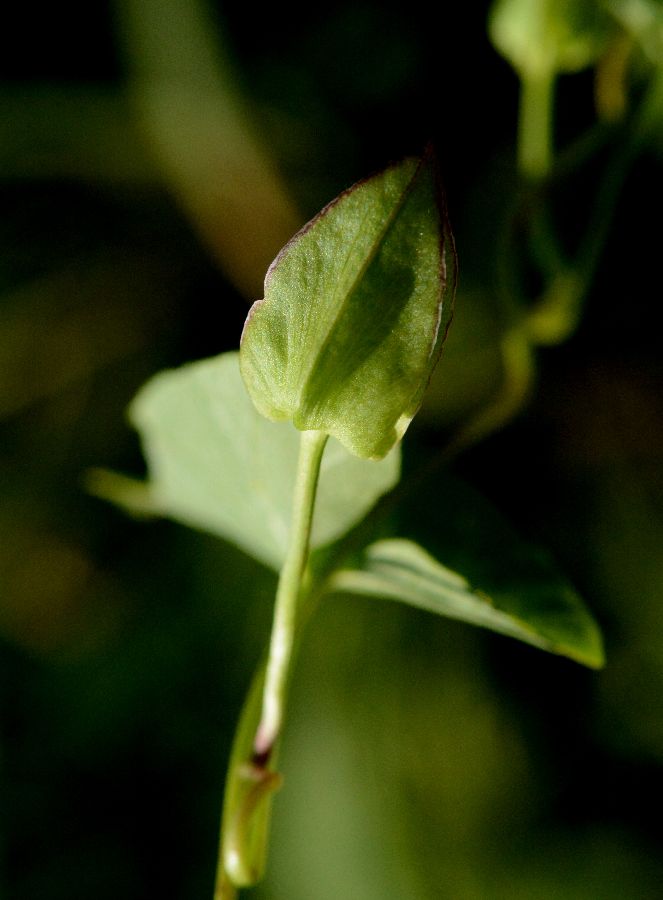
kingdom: Plantae
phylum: Tracheophyta
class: Magnoliopsida
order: Solanales
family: Convolvulaceae
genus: Calystegia
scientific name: Calystegia sepium
